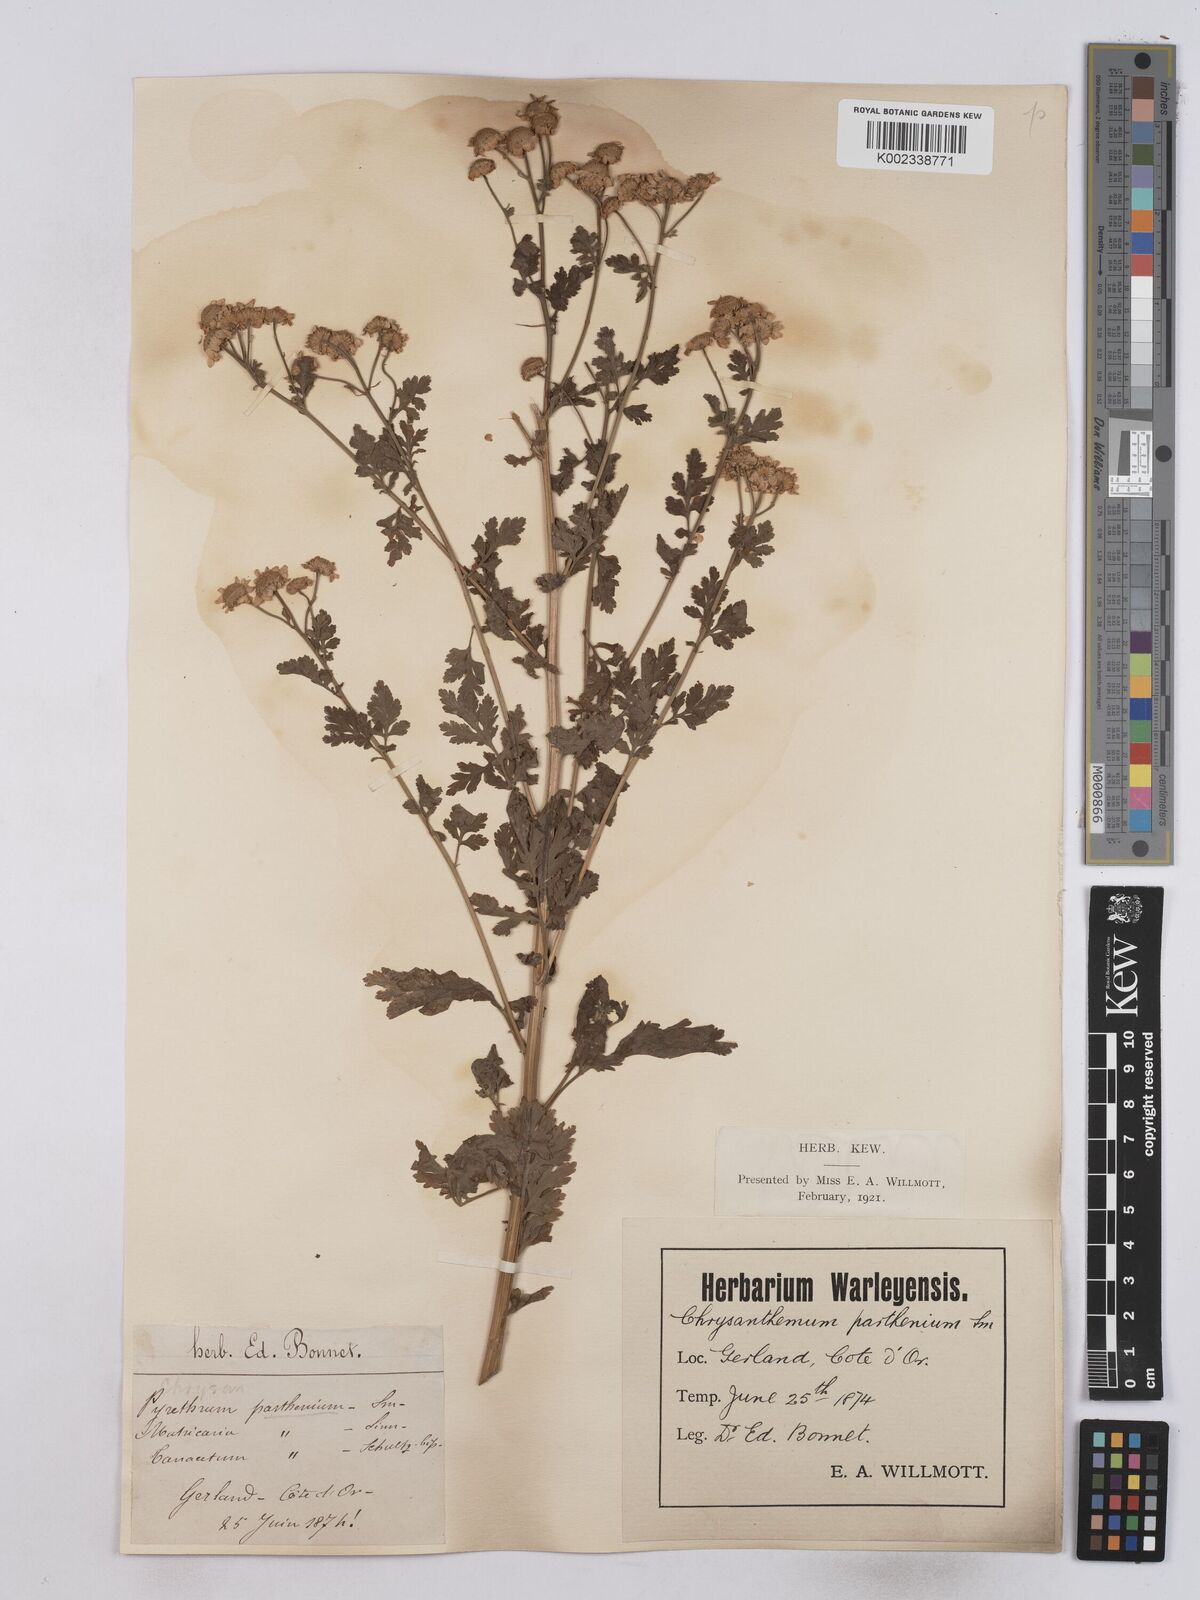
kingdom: Plantae
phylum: Tracheophyta
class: Magnoliopsida
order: Asterales
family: Asteraceae
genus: Tanacetum
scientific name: Tanacetum parthenium
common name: Feverfew
